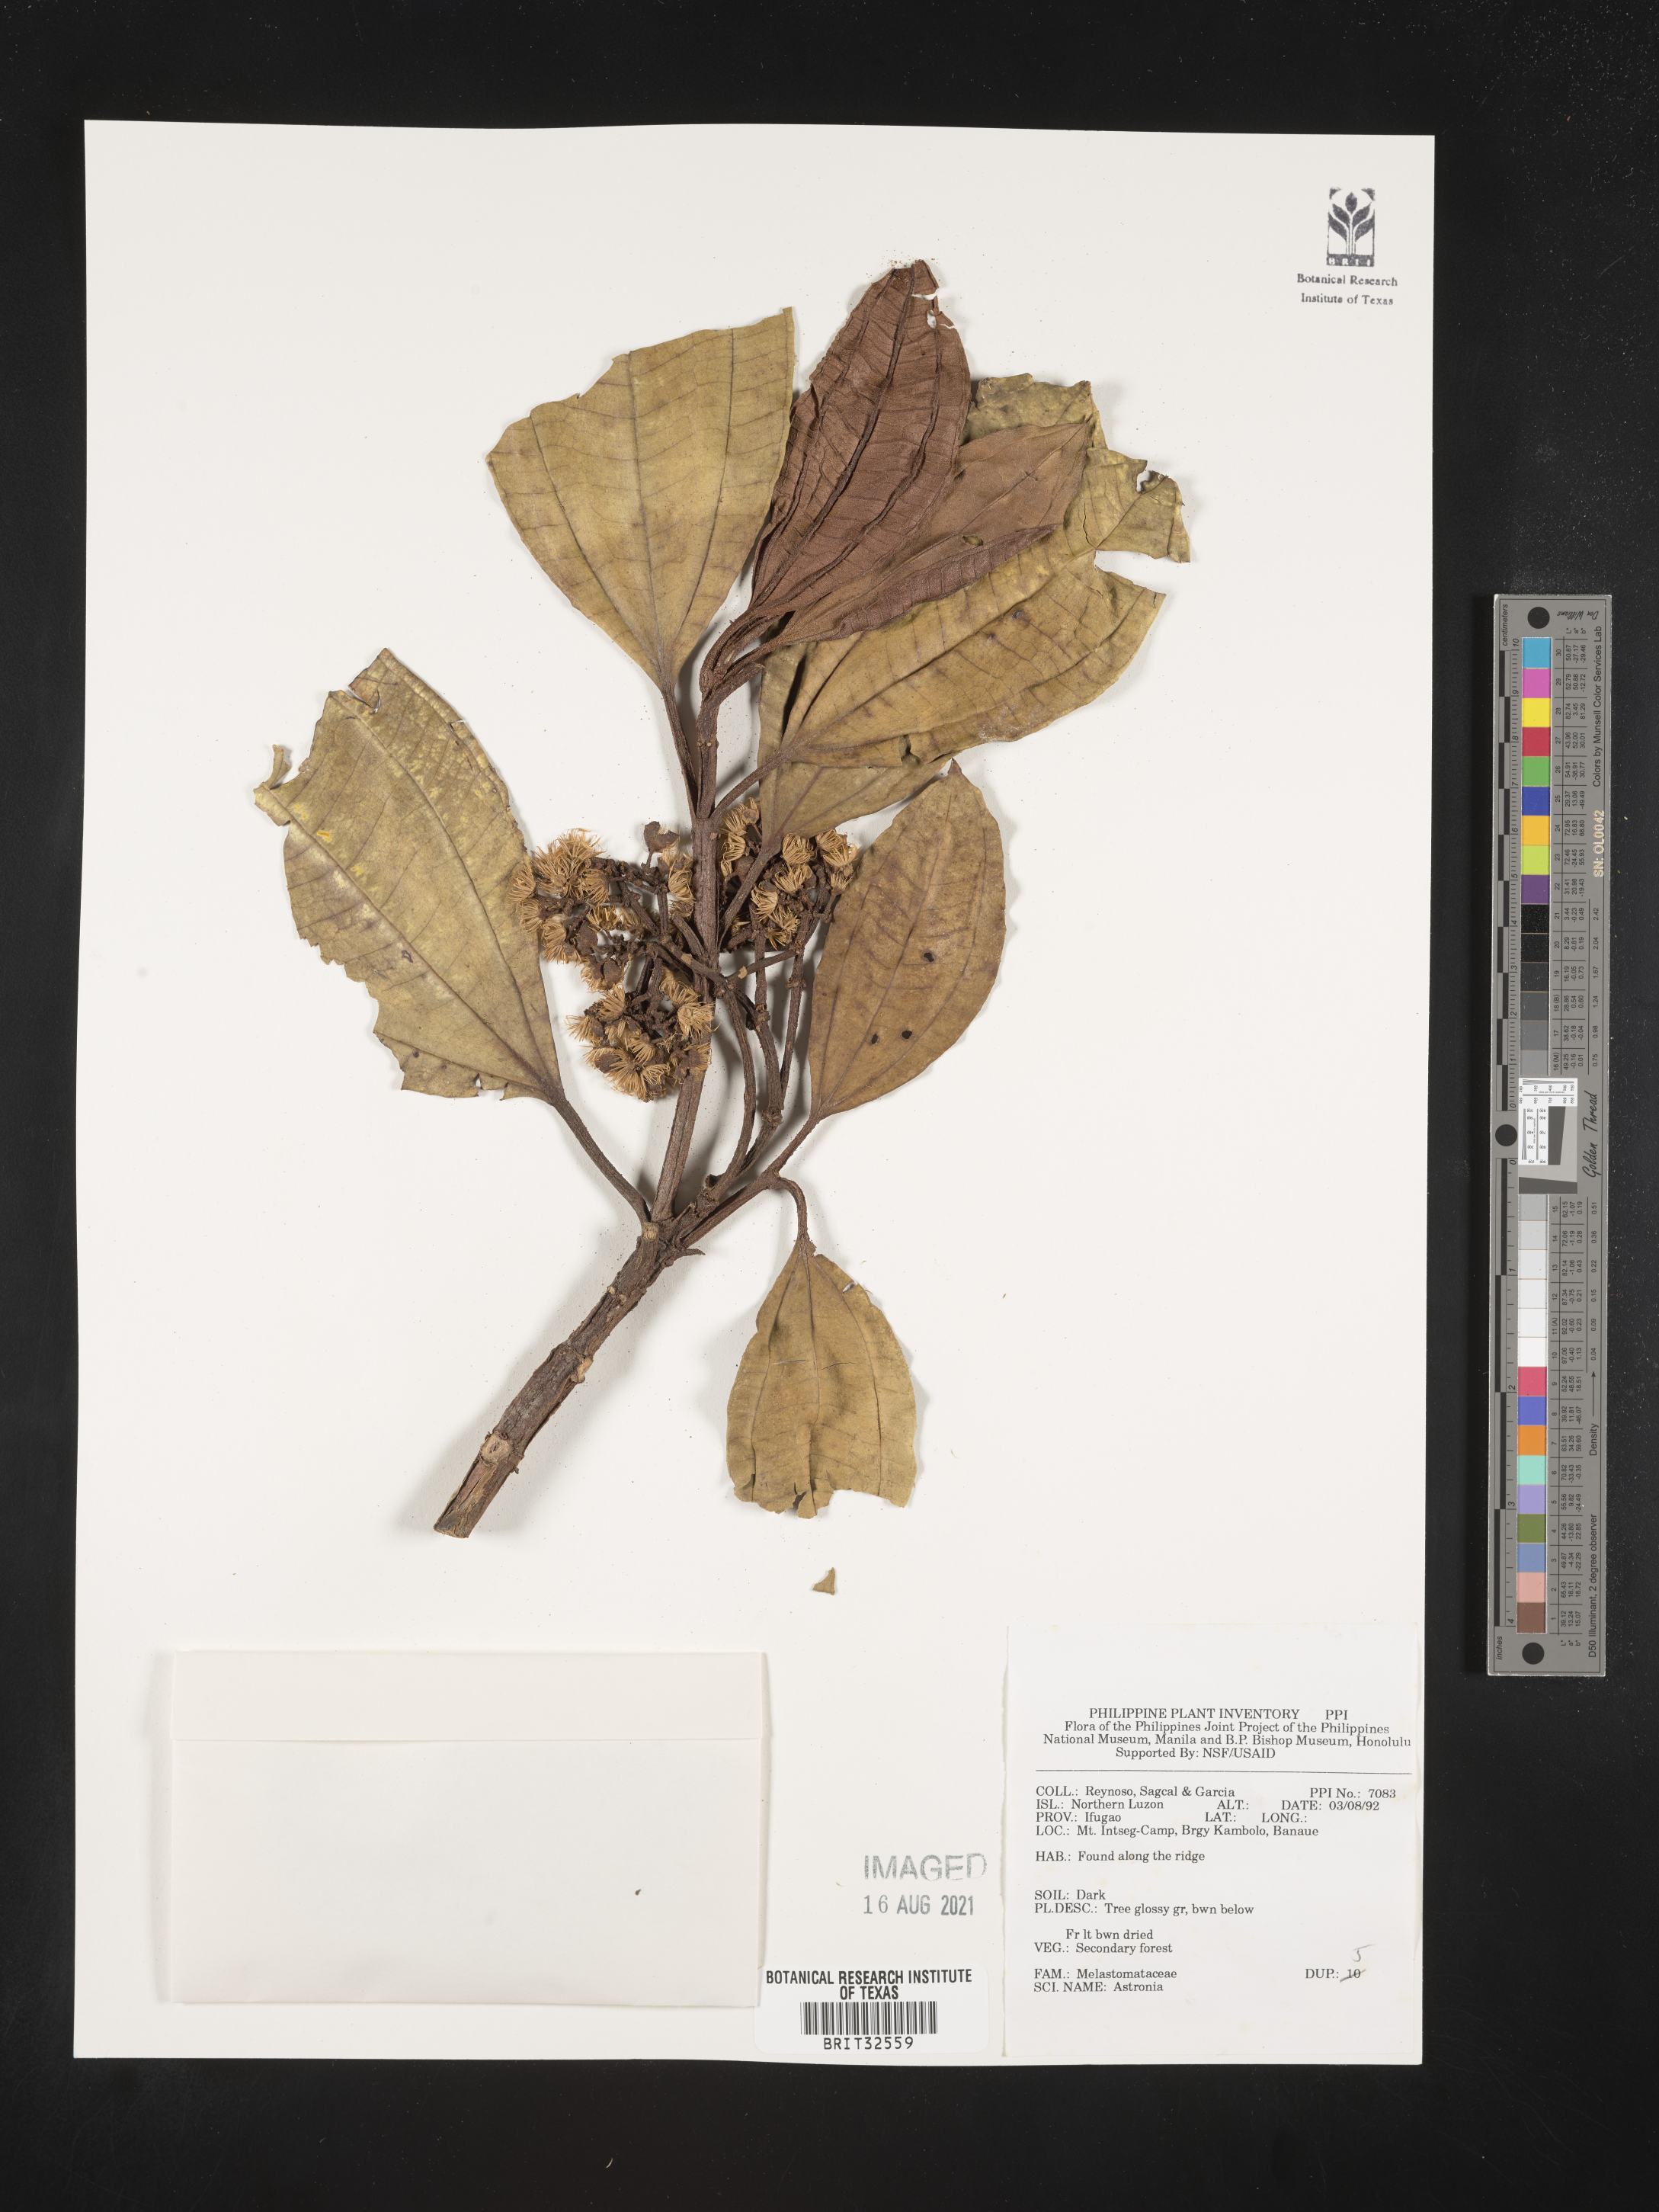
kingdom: Plantae
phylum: Tracheophyta
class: Magnoliopsida
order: Myrtales
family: Melastomataceae
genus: Astronia
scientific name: Astronia
